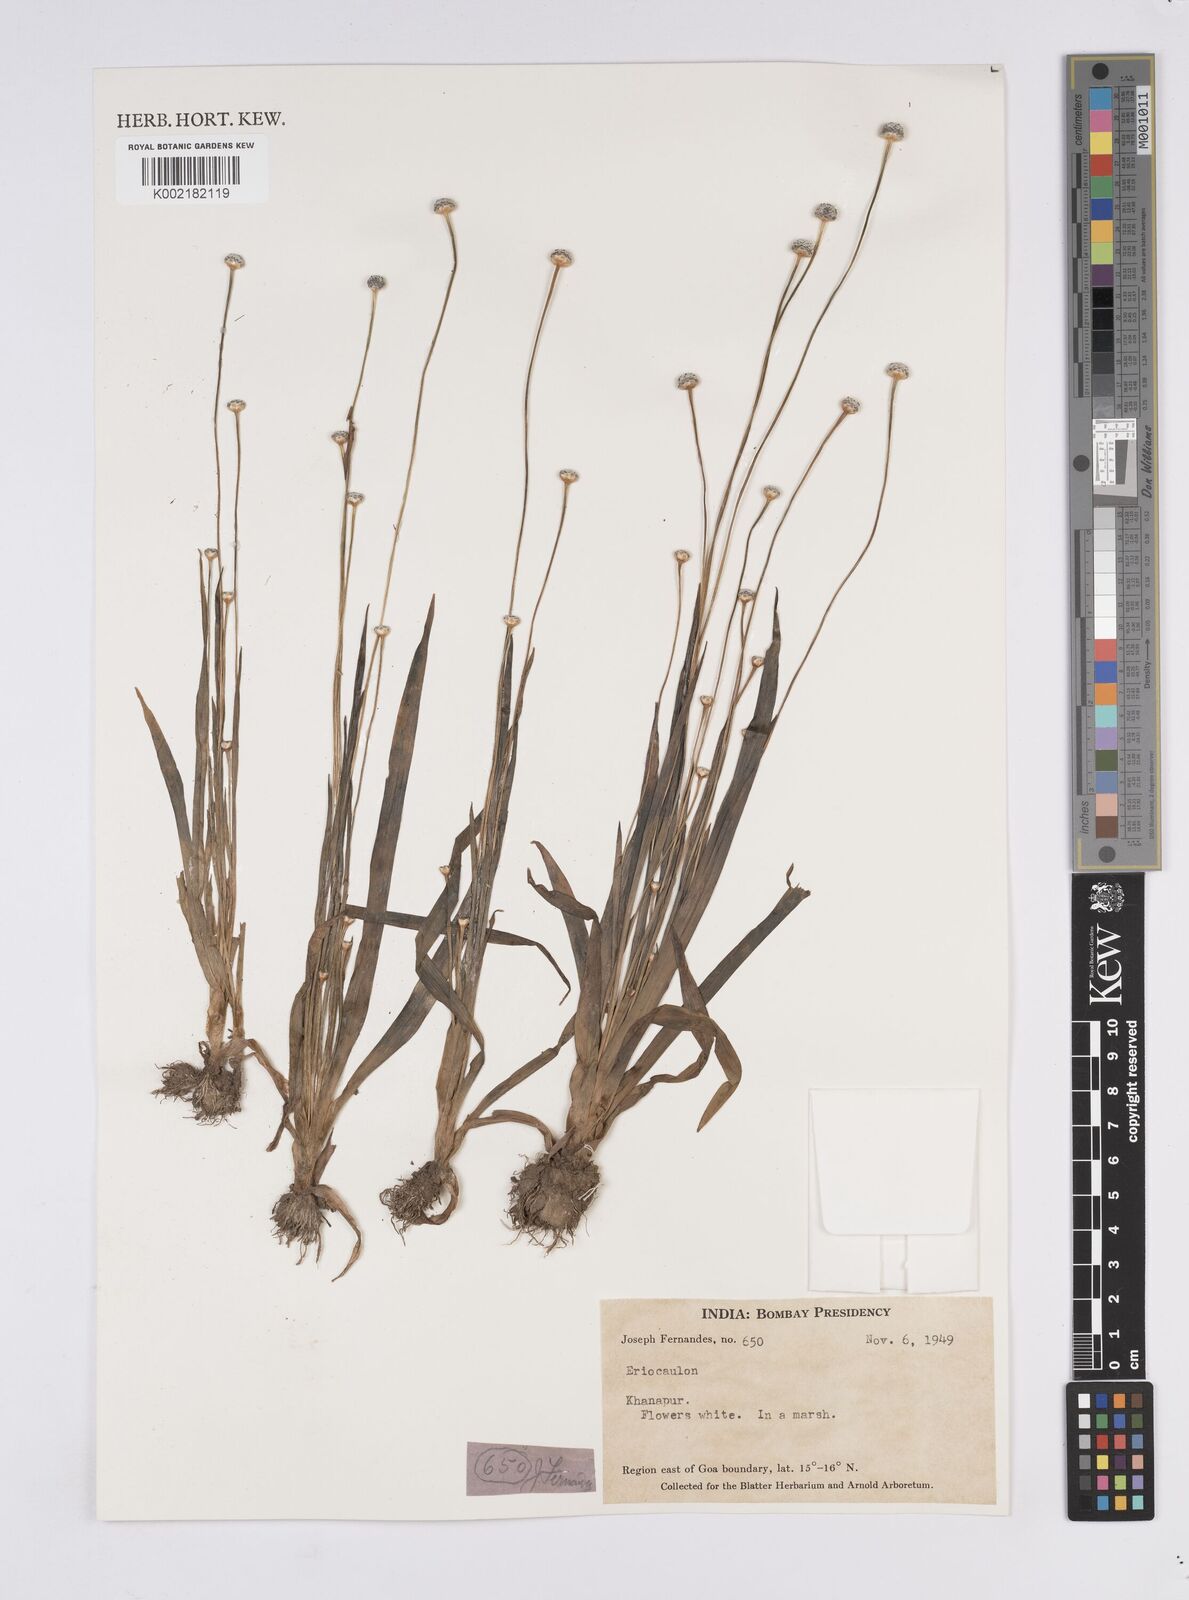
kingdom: Plantae
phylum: Tracheophyta
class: Liliopsida
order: Poales
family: Eriocaulaceae
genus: Eriocaulon
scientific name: Eriocaulon
